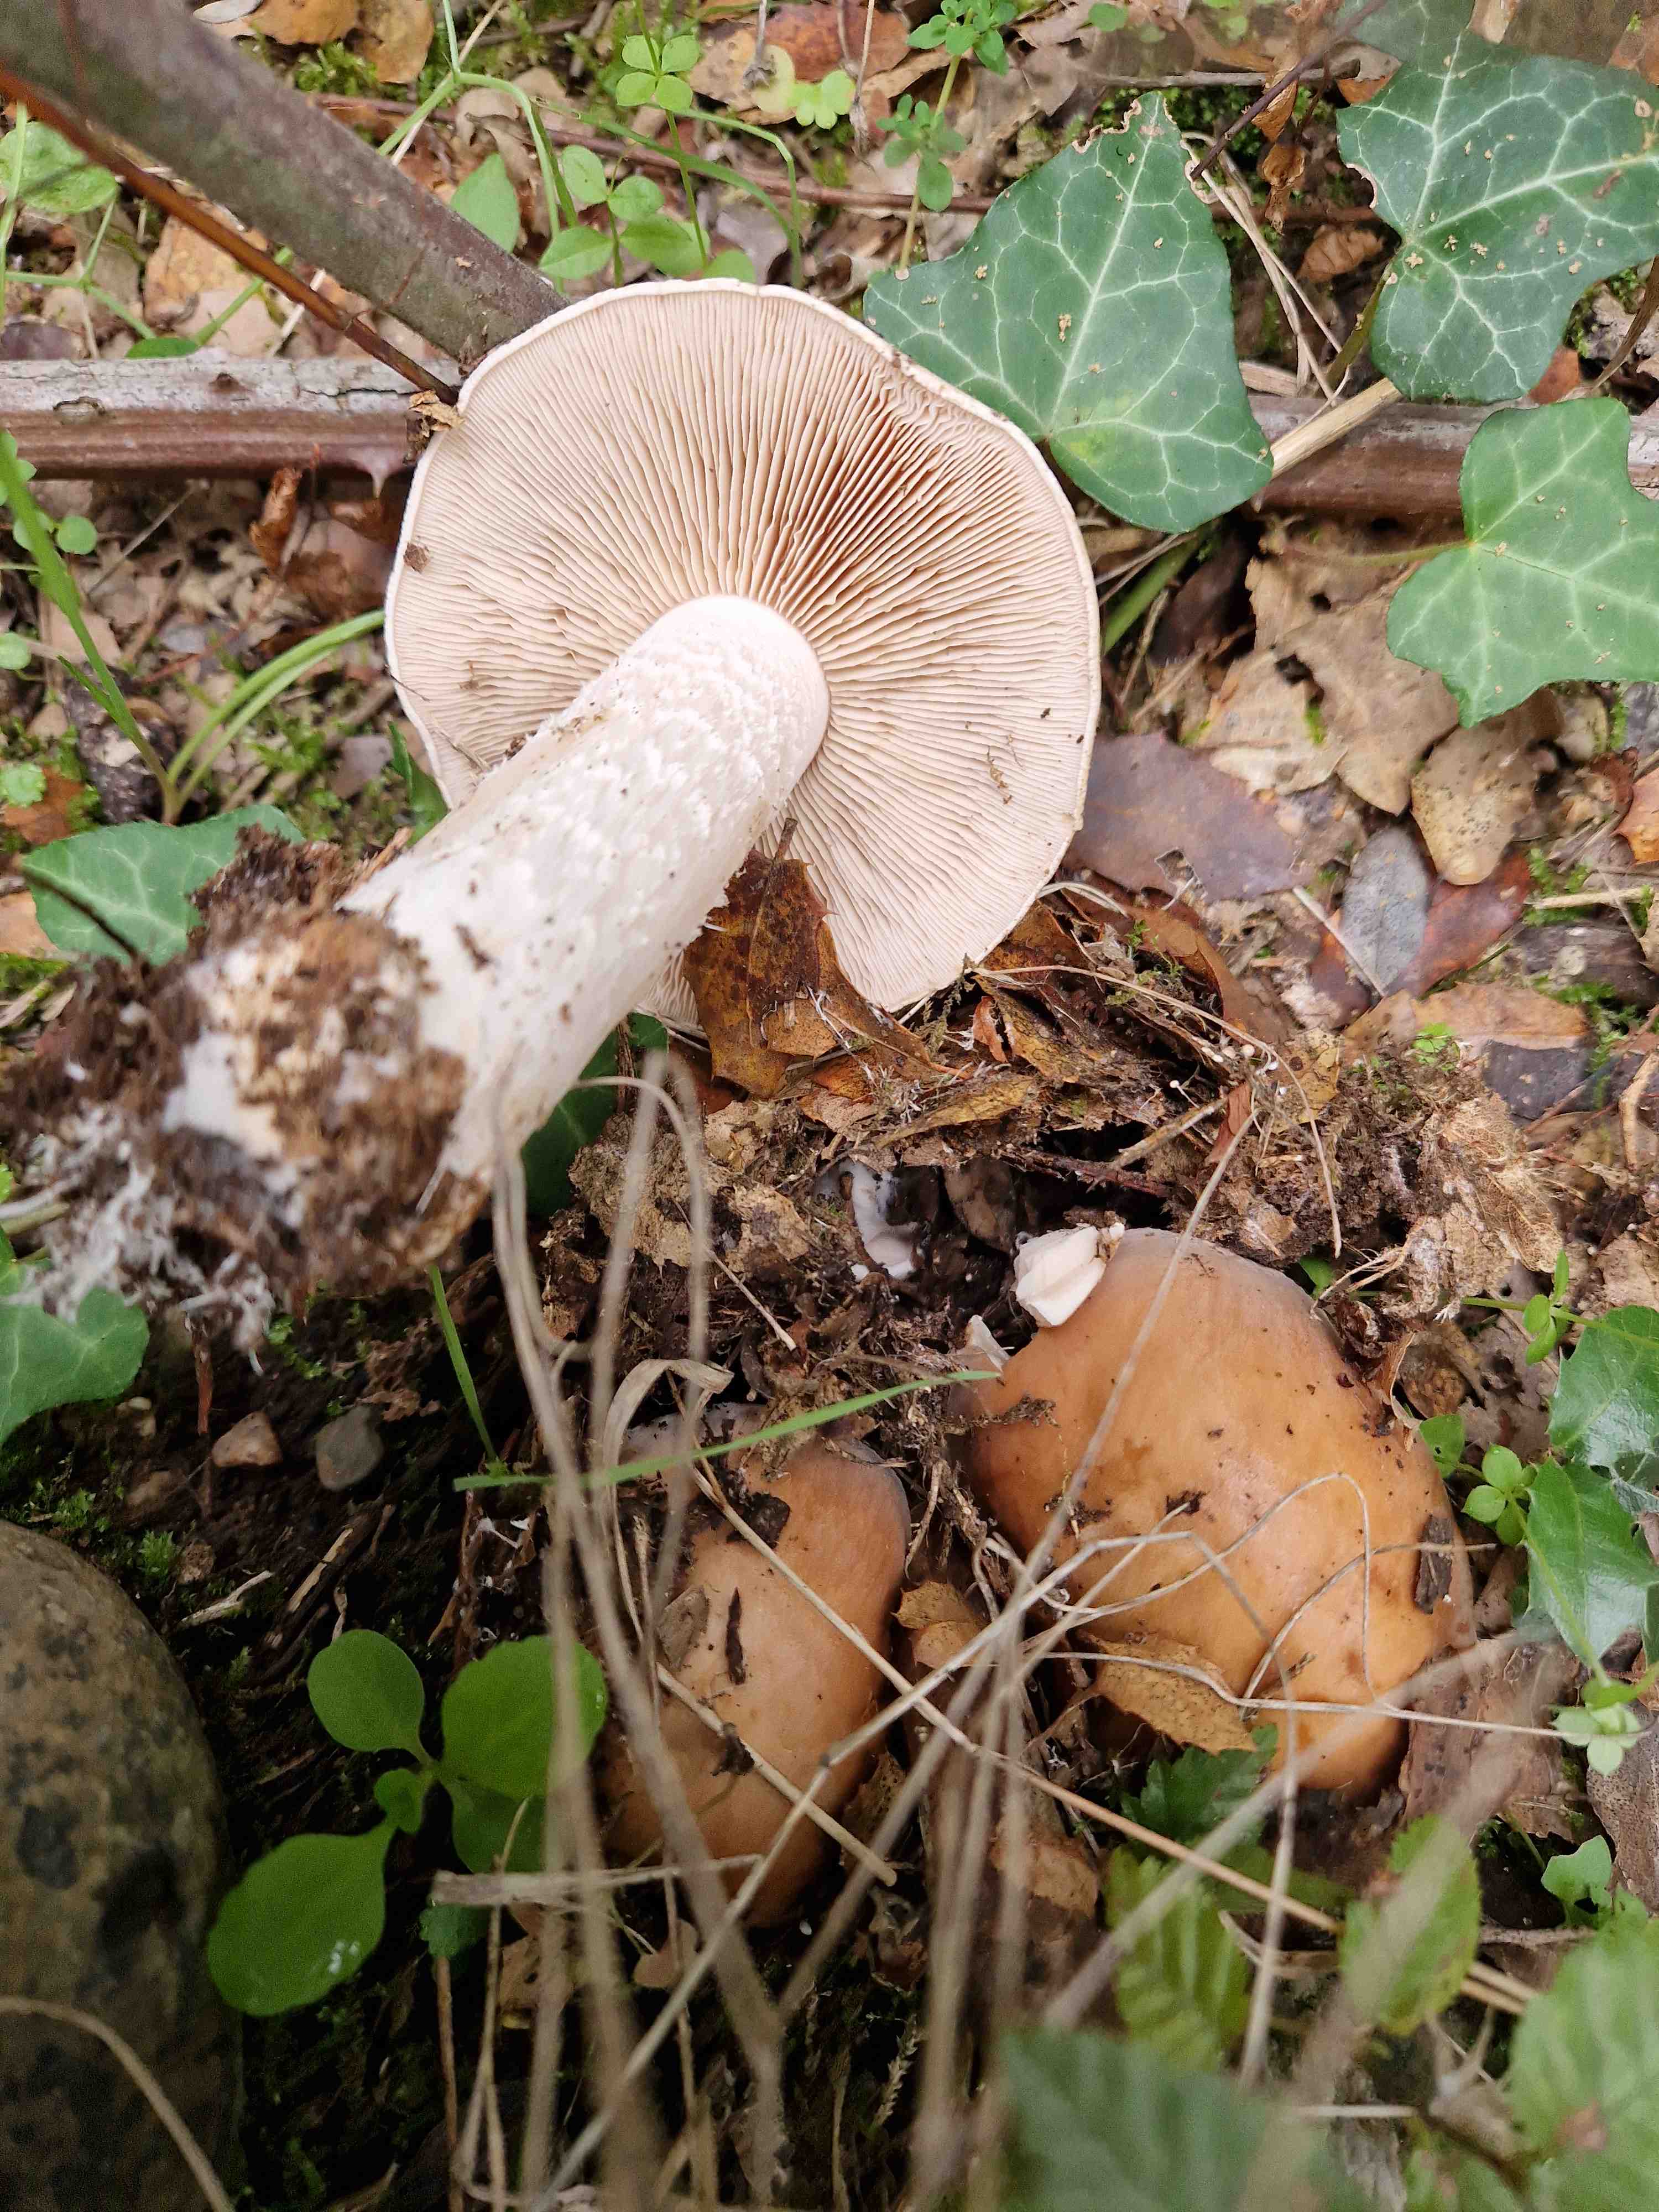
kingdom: Fungi
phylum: Basidiomycota
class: Agaricomycetes
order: Agaricales
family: Hymenogastraceae
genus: Hebeloma
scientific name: Hebeloma
